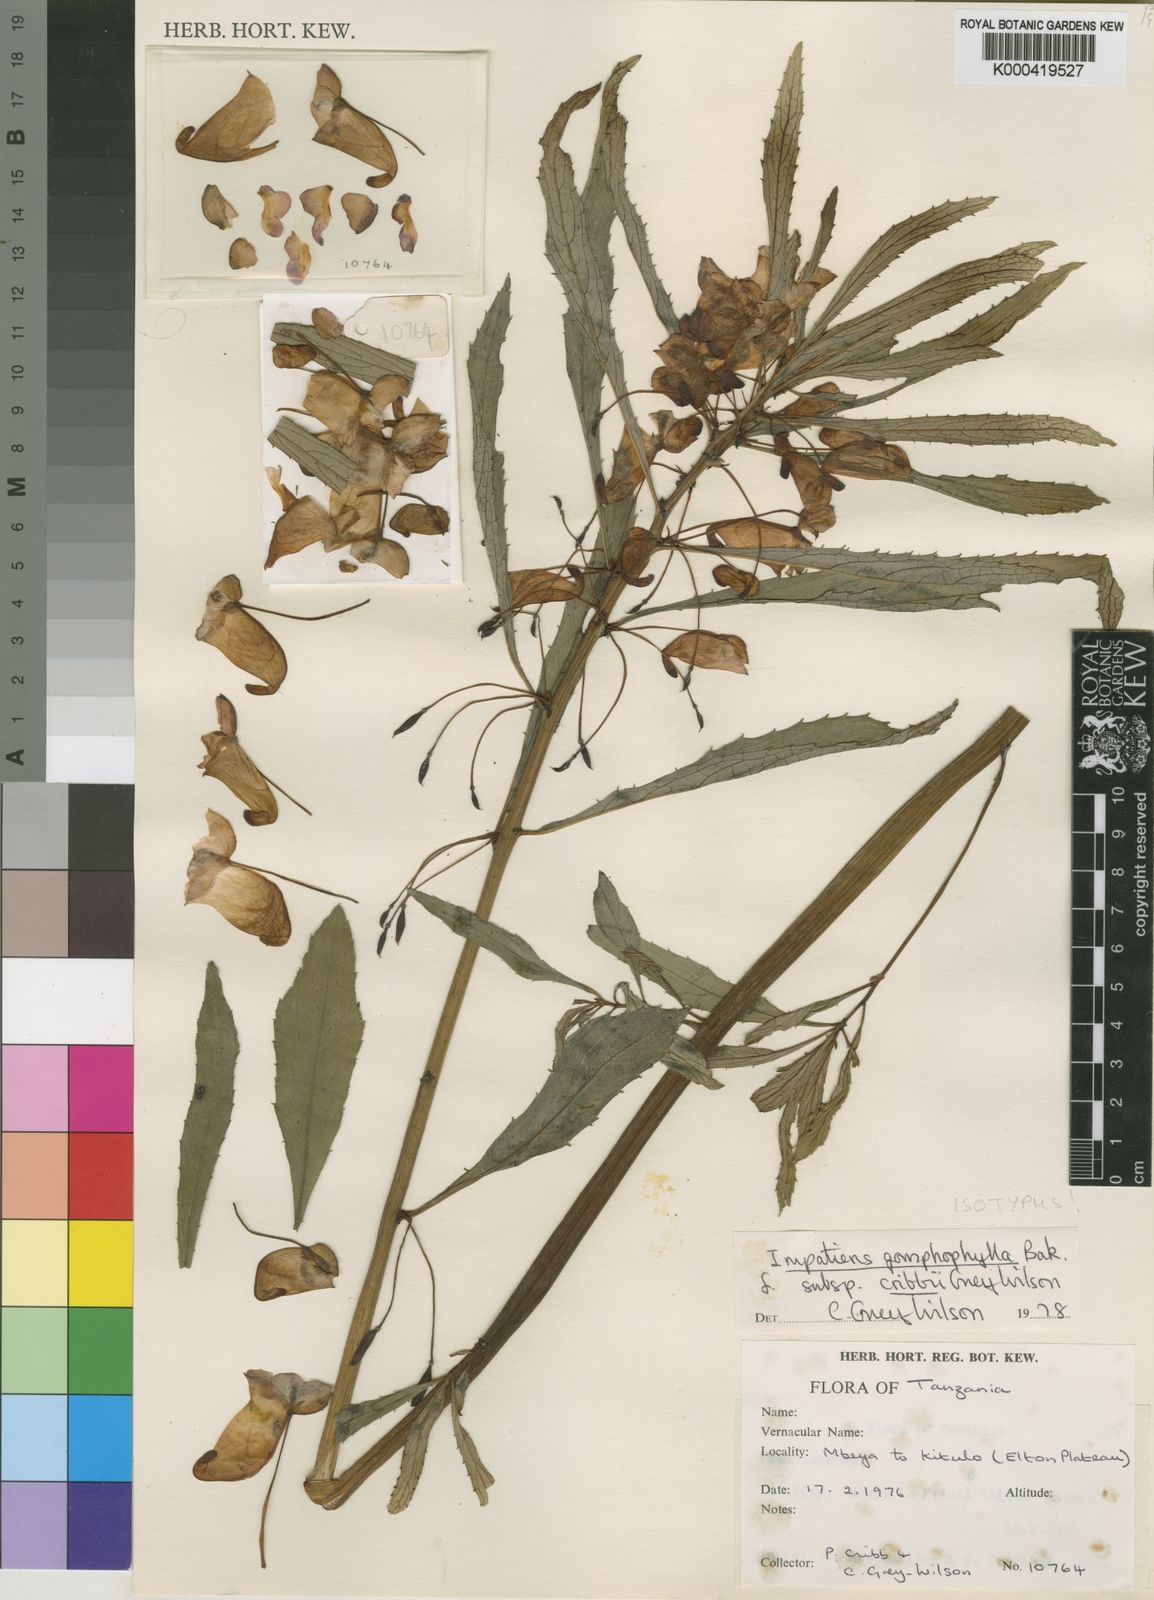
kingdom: Plantae
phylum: Tracheophyta
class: Magnoliopsida
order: Ericales
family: Balsaminaceae
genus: Impatiens
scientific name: Impatiens cribbii
